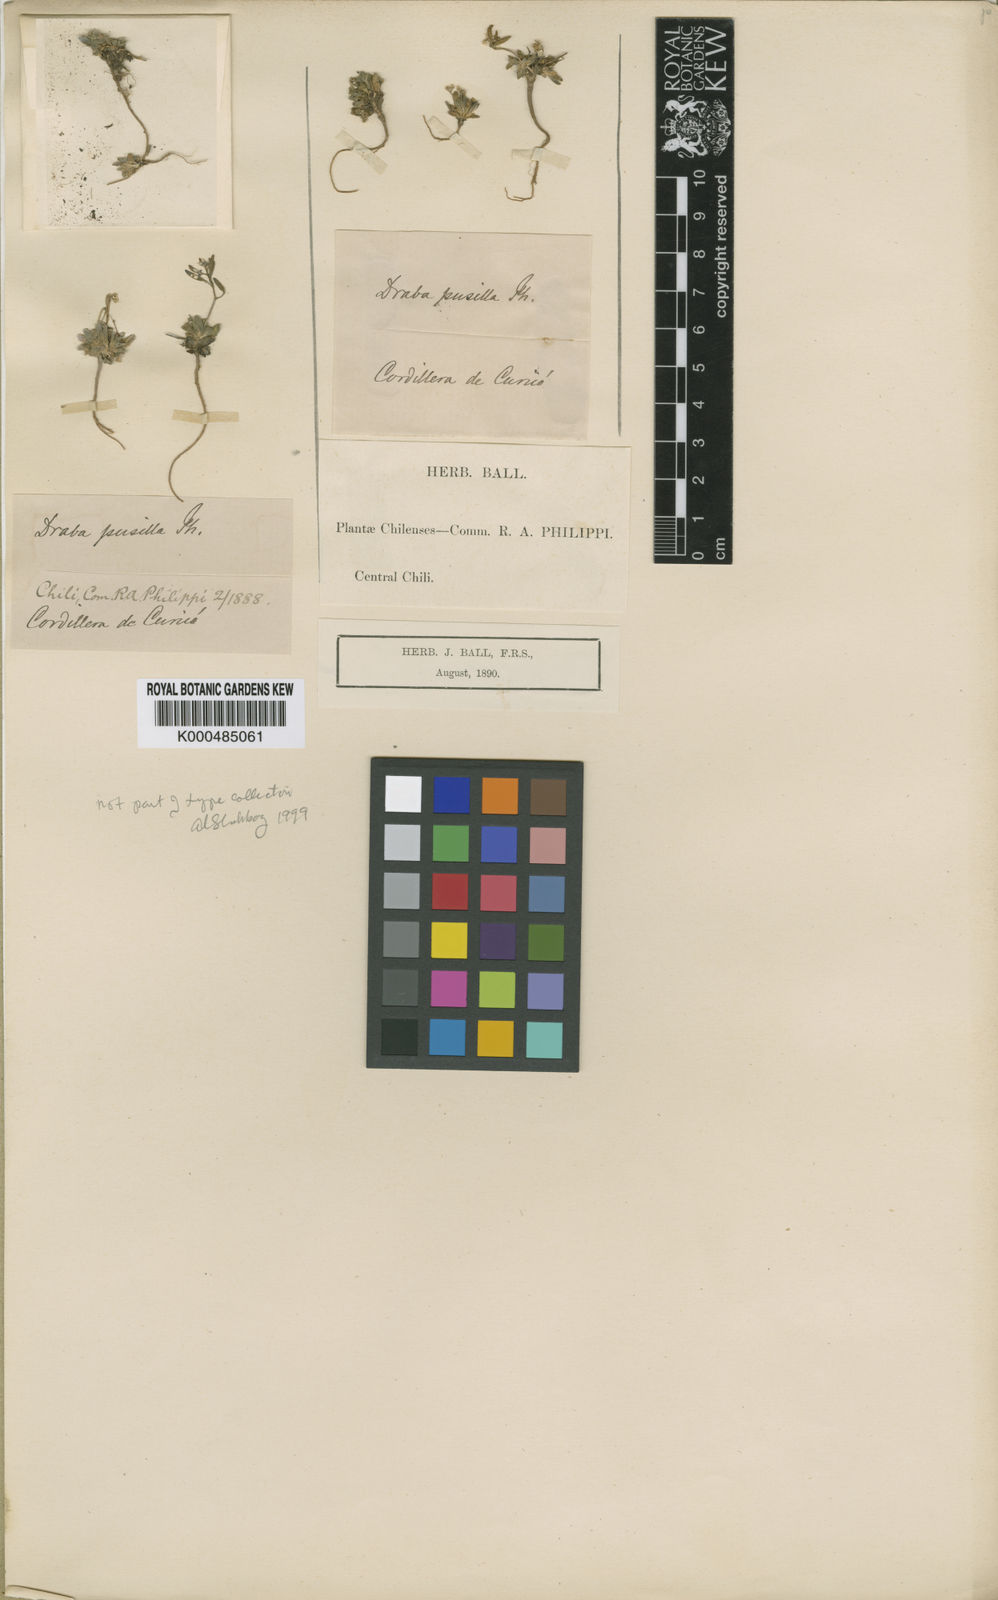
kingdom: Plantae
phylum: Tracheophyta
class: Magnoliopsida
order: Brassicales
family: Brassicaceae
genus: Draba
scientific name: Draba pusilla
